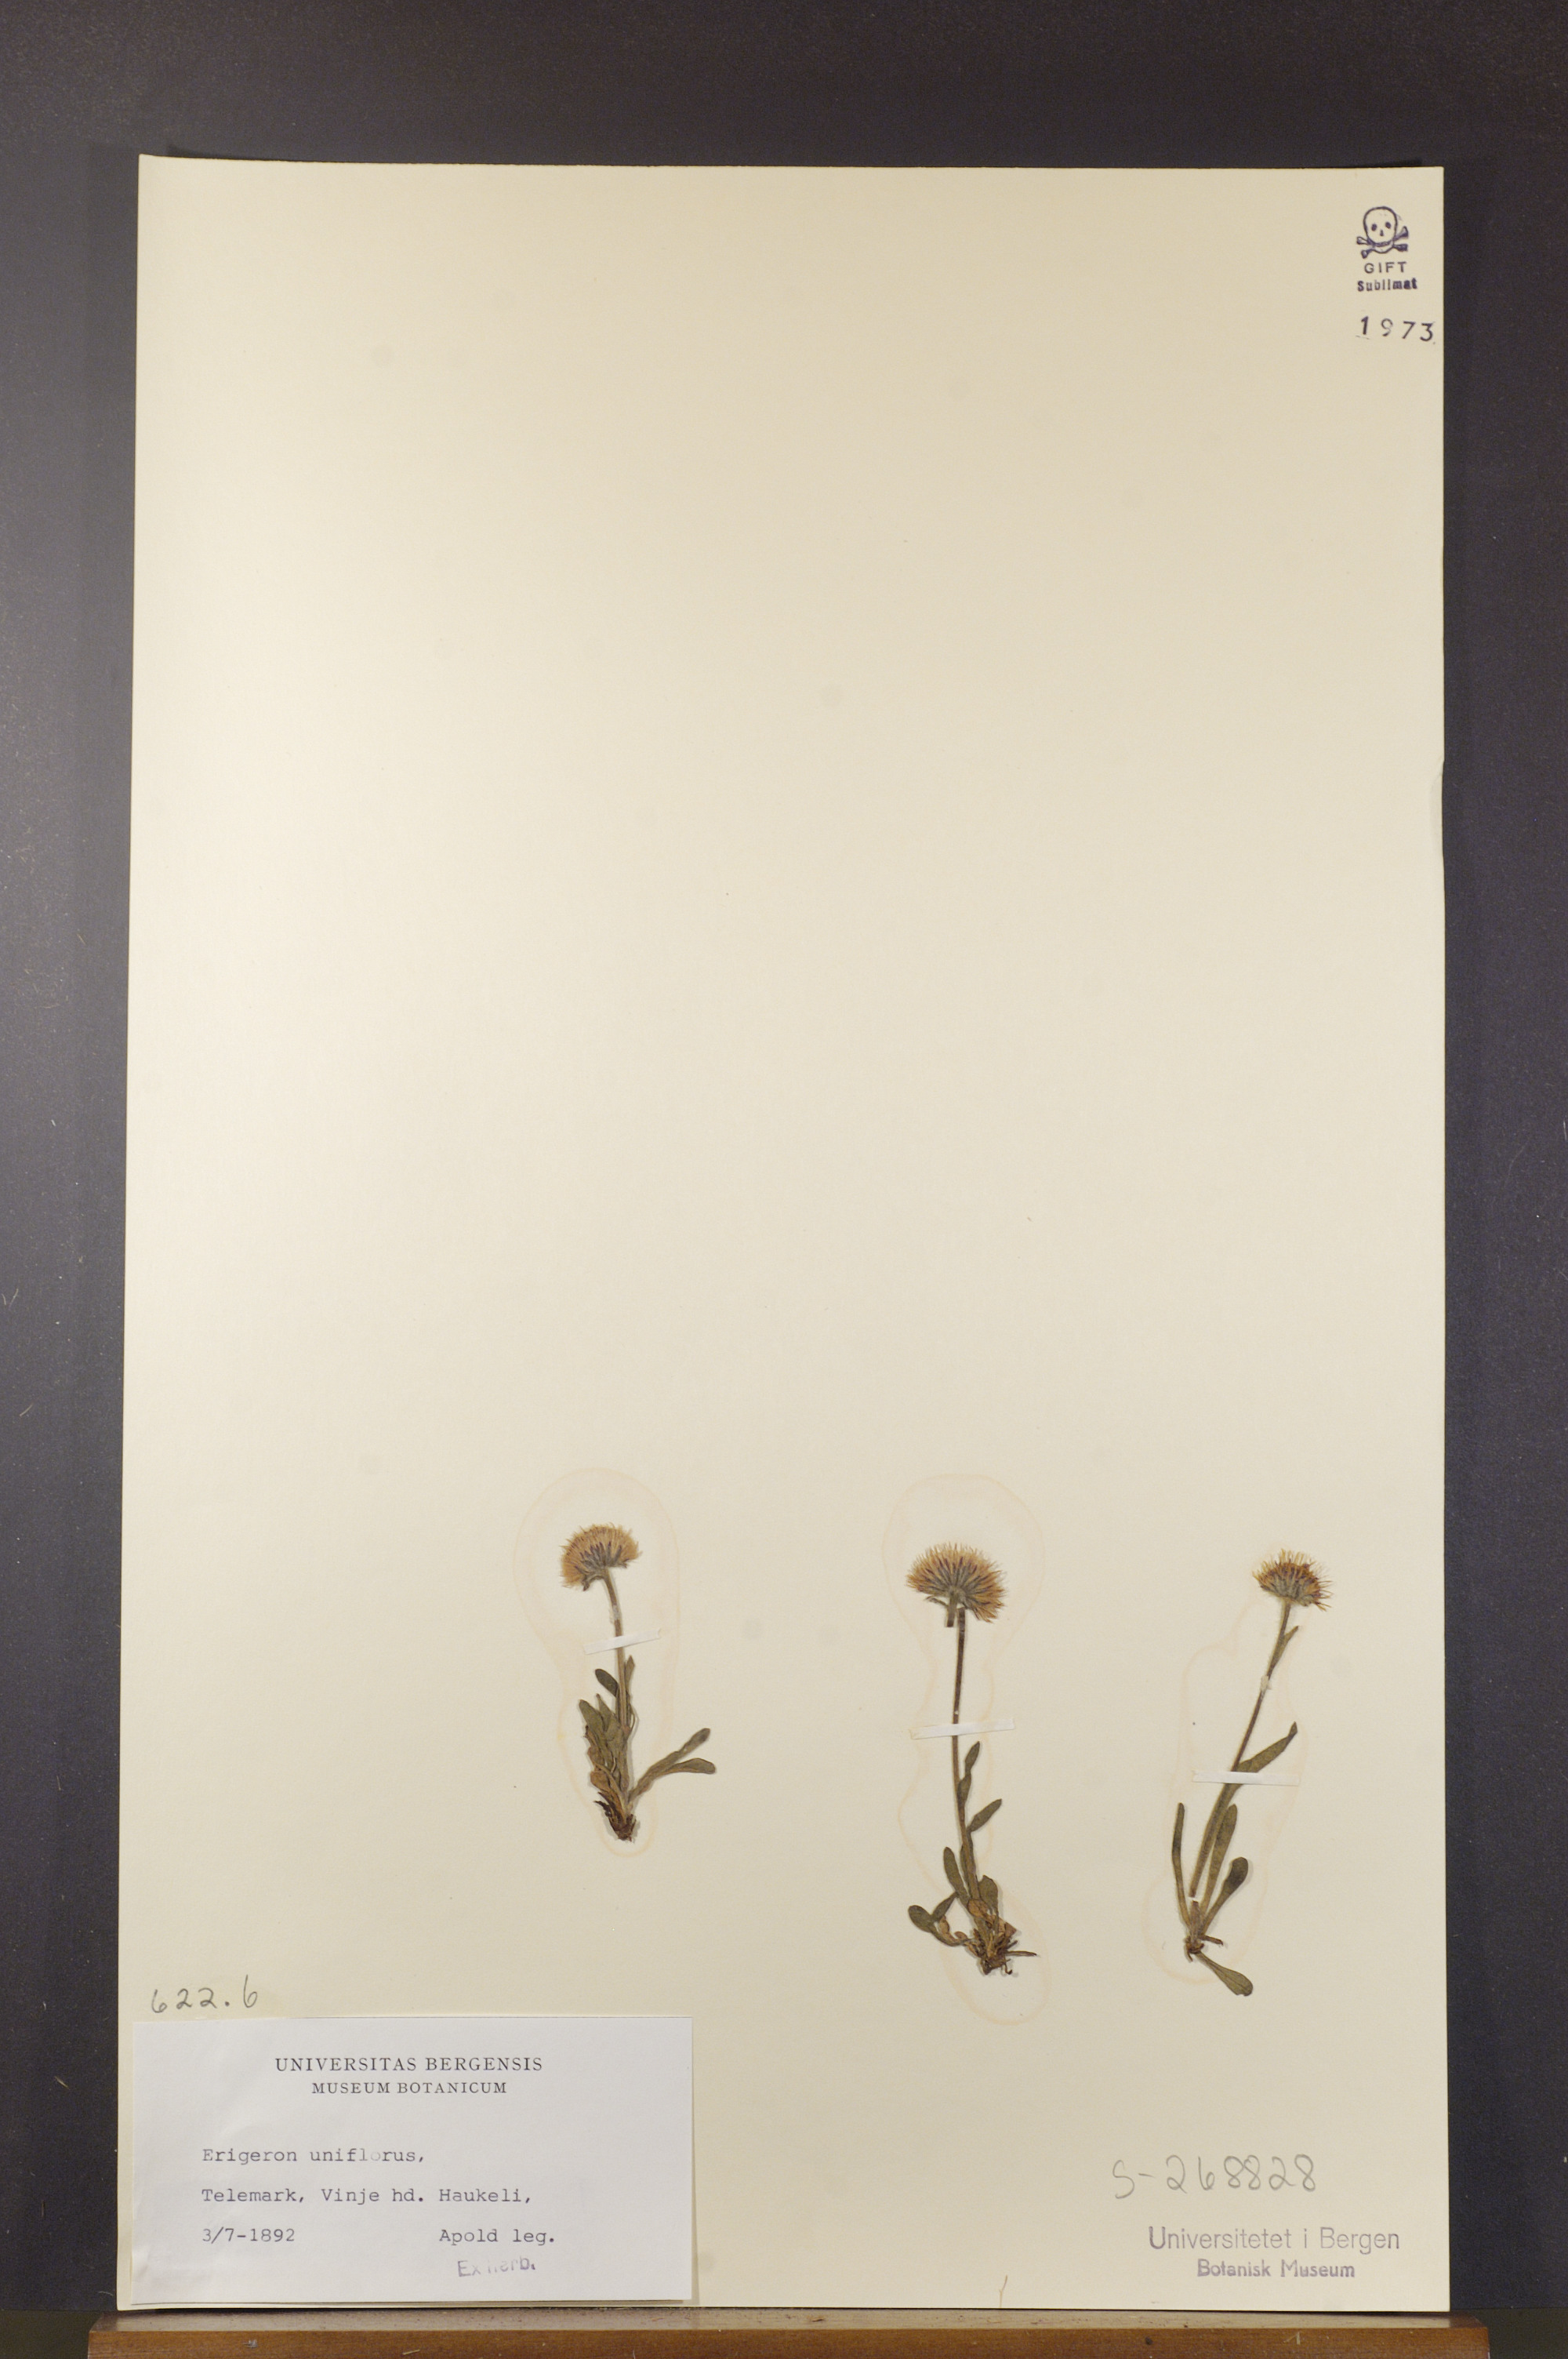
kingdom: Plantae
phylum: Tracheophyta
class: Magnoliopsida
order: Asterales
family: Asteraceae
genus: Erigeron
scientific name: Erigeron uniflorus
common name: Northern daisy
